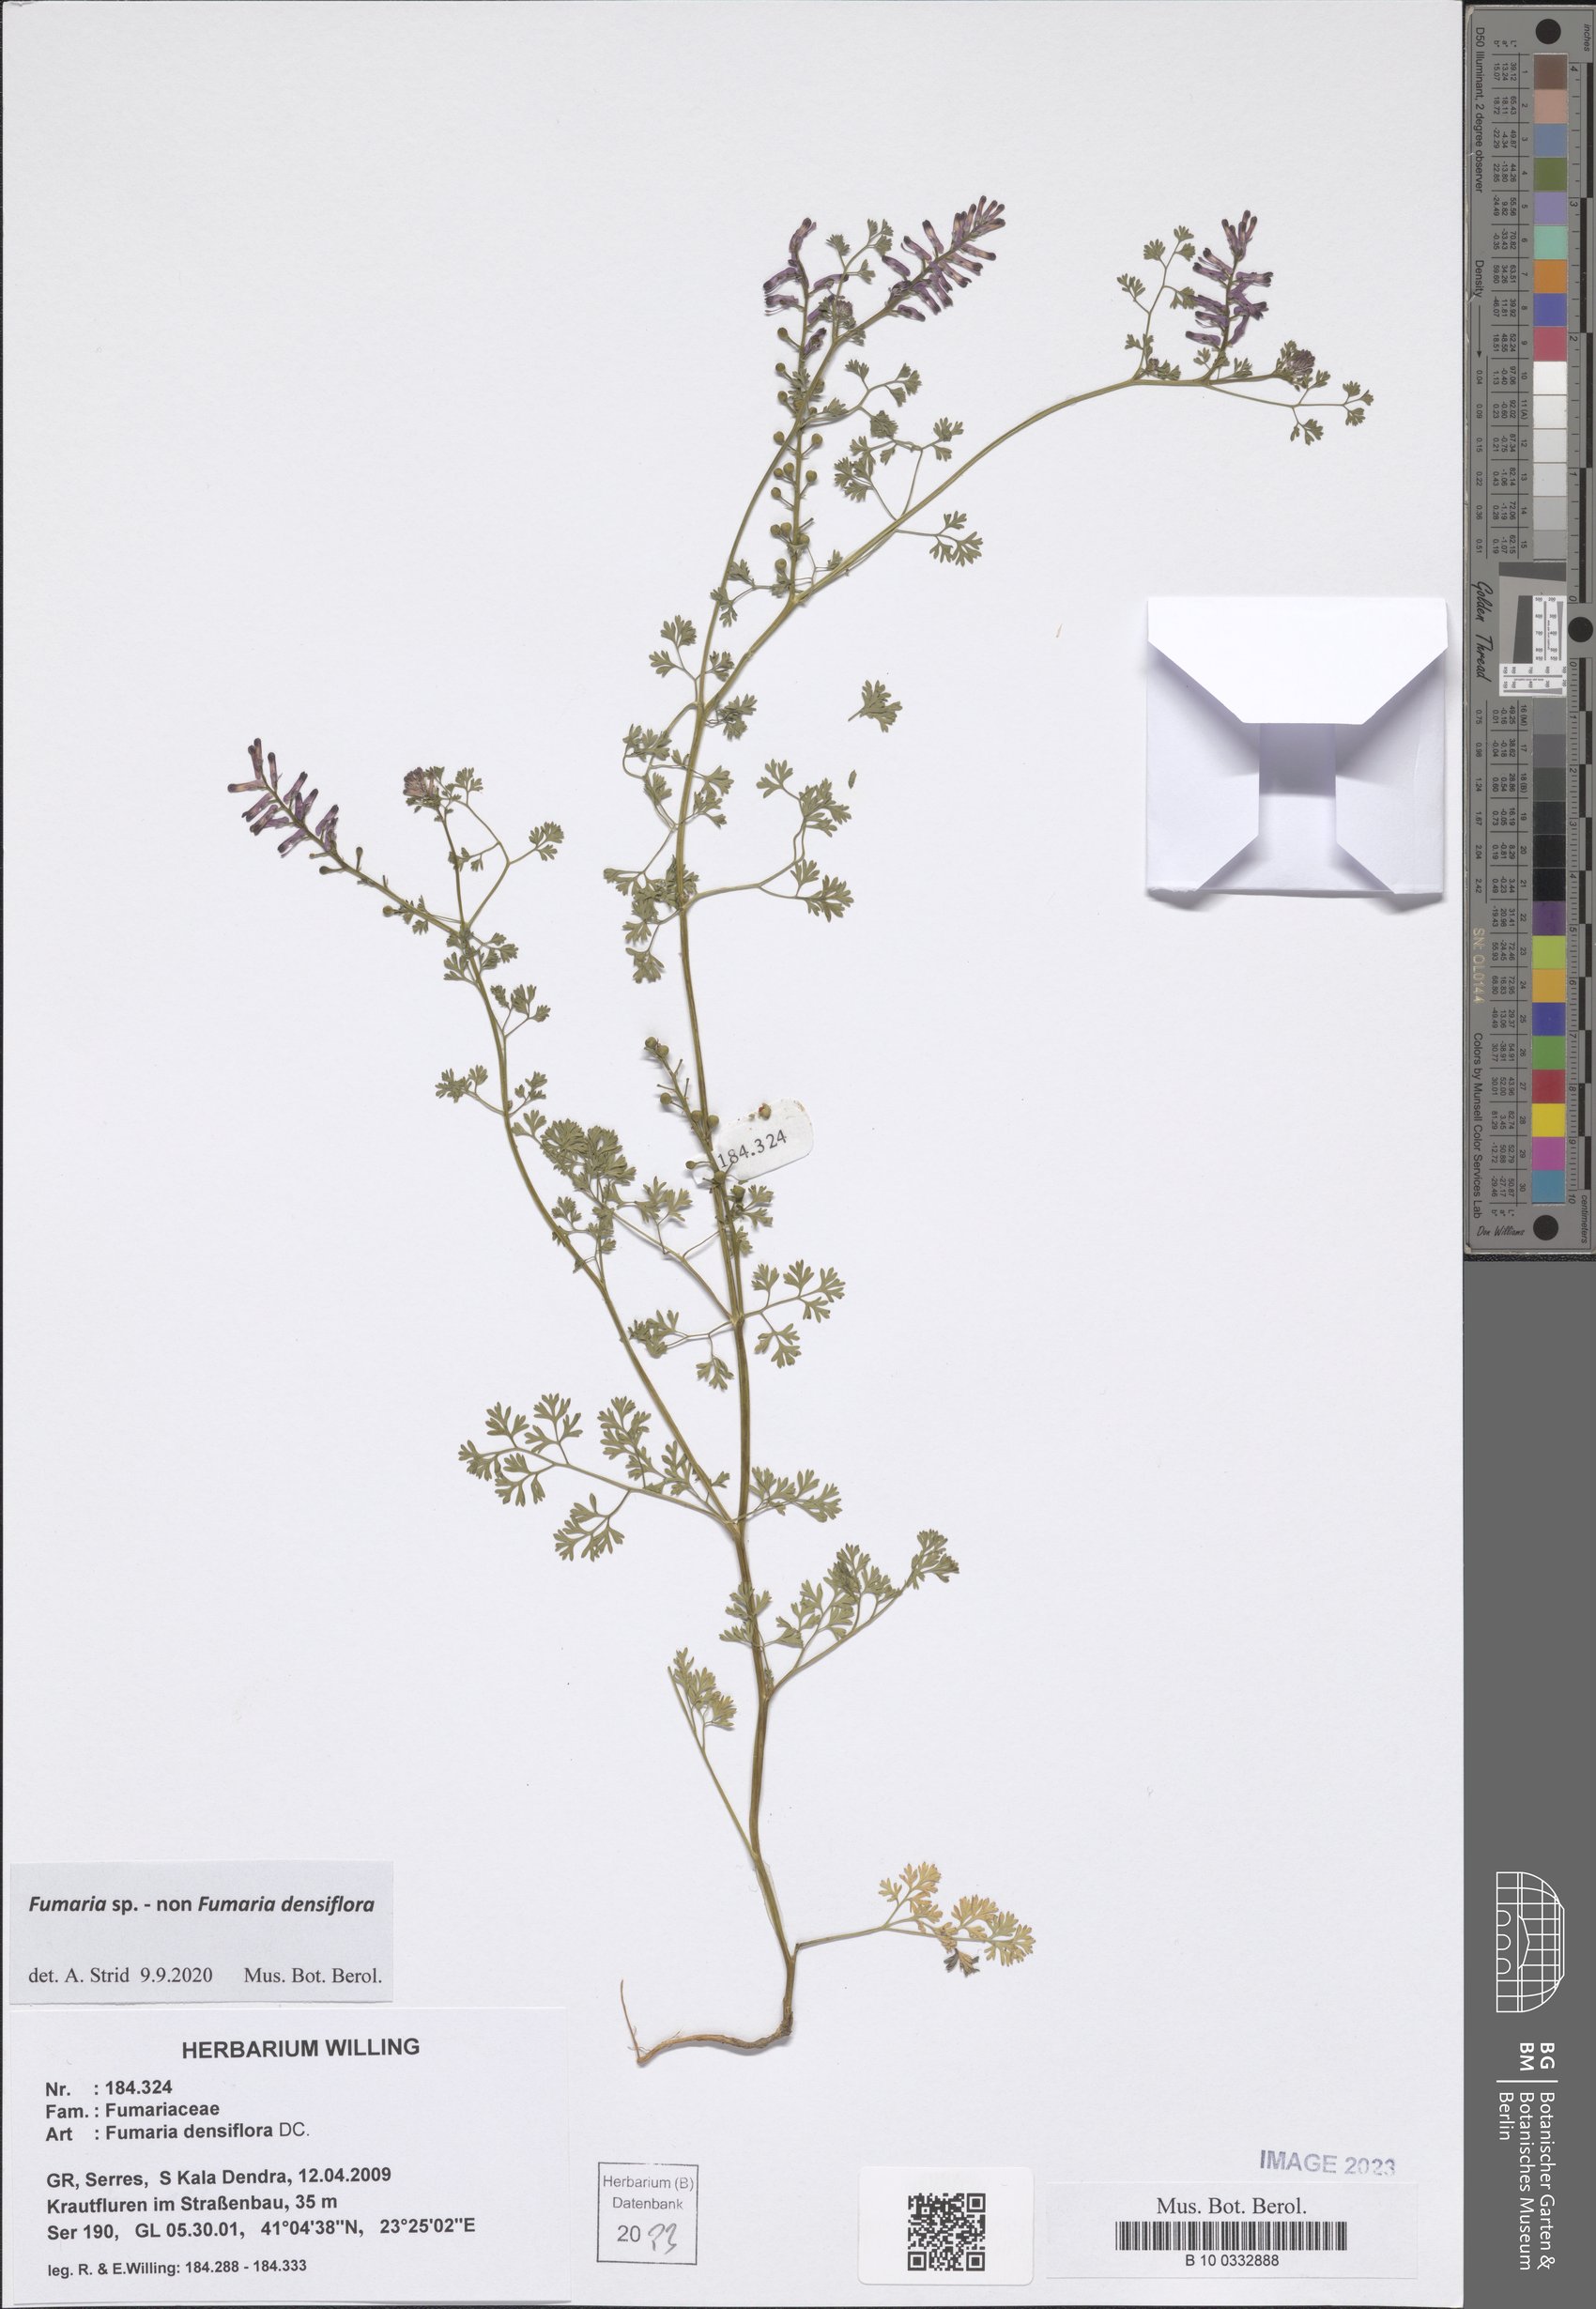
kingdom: Plantae
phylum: Tracheophyta
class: Magnoliopsida
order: Ranunculales
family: Papaveraceae
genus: Fumaria
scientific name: Fumaria
